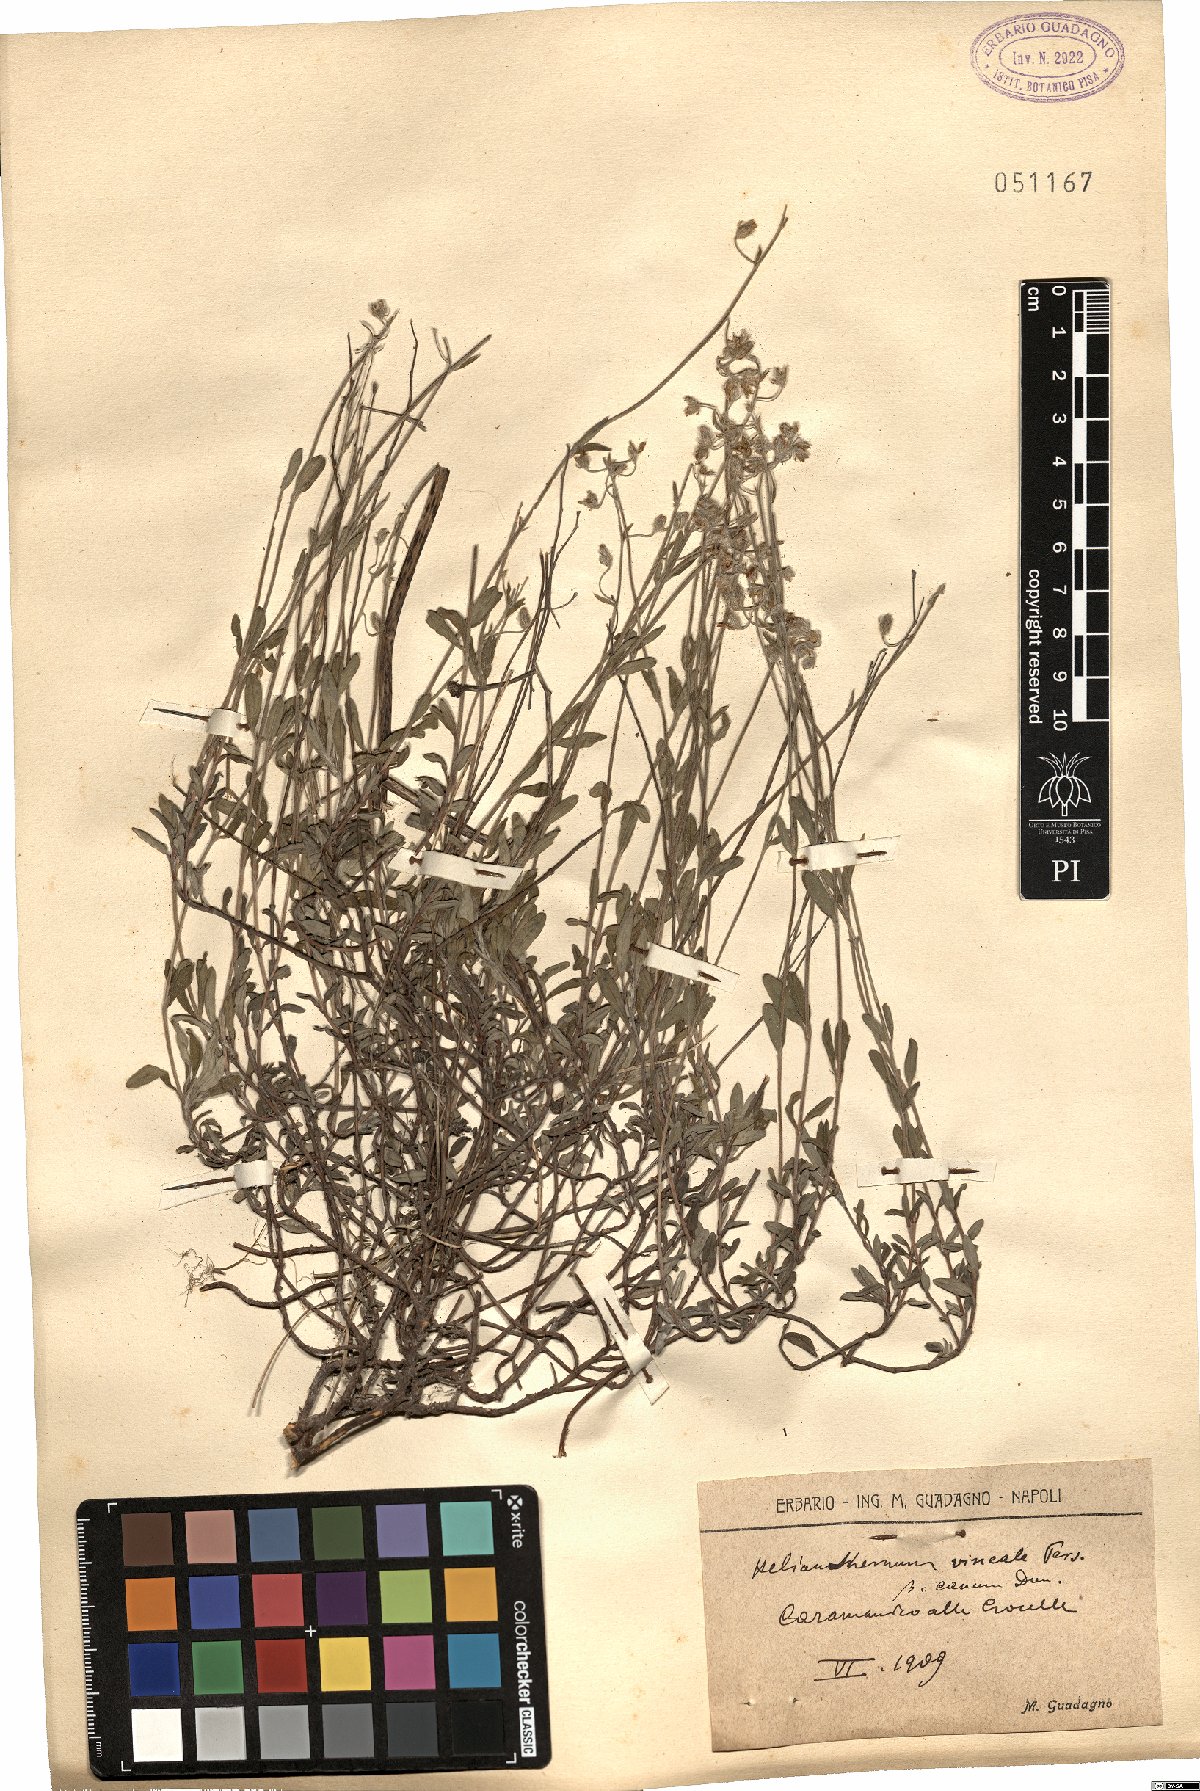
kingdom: Plantae
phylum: Tracheophyta
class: Magnoliopsida
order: Malvales
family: Cistaceae
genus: Helianthemum
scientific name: Helianthemum canum
